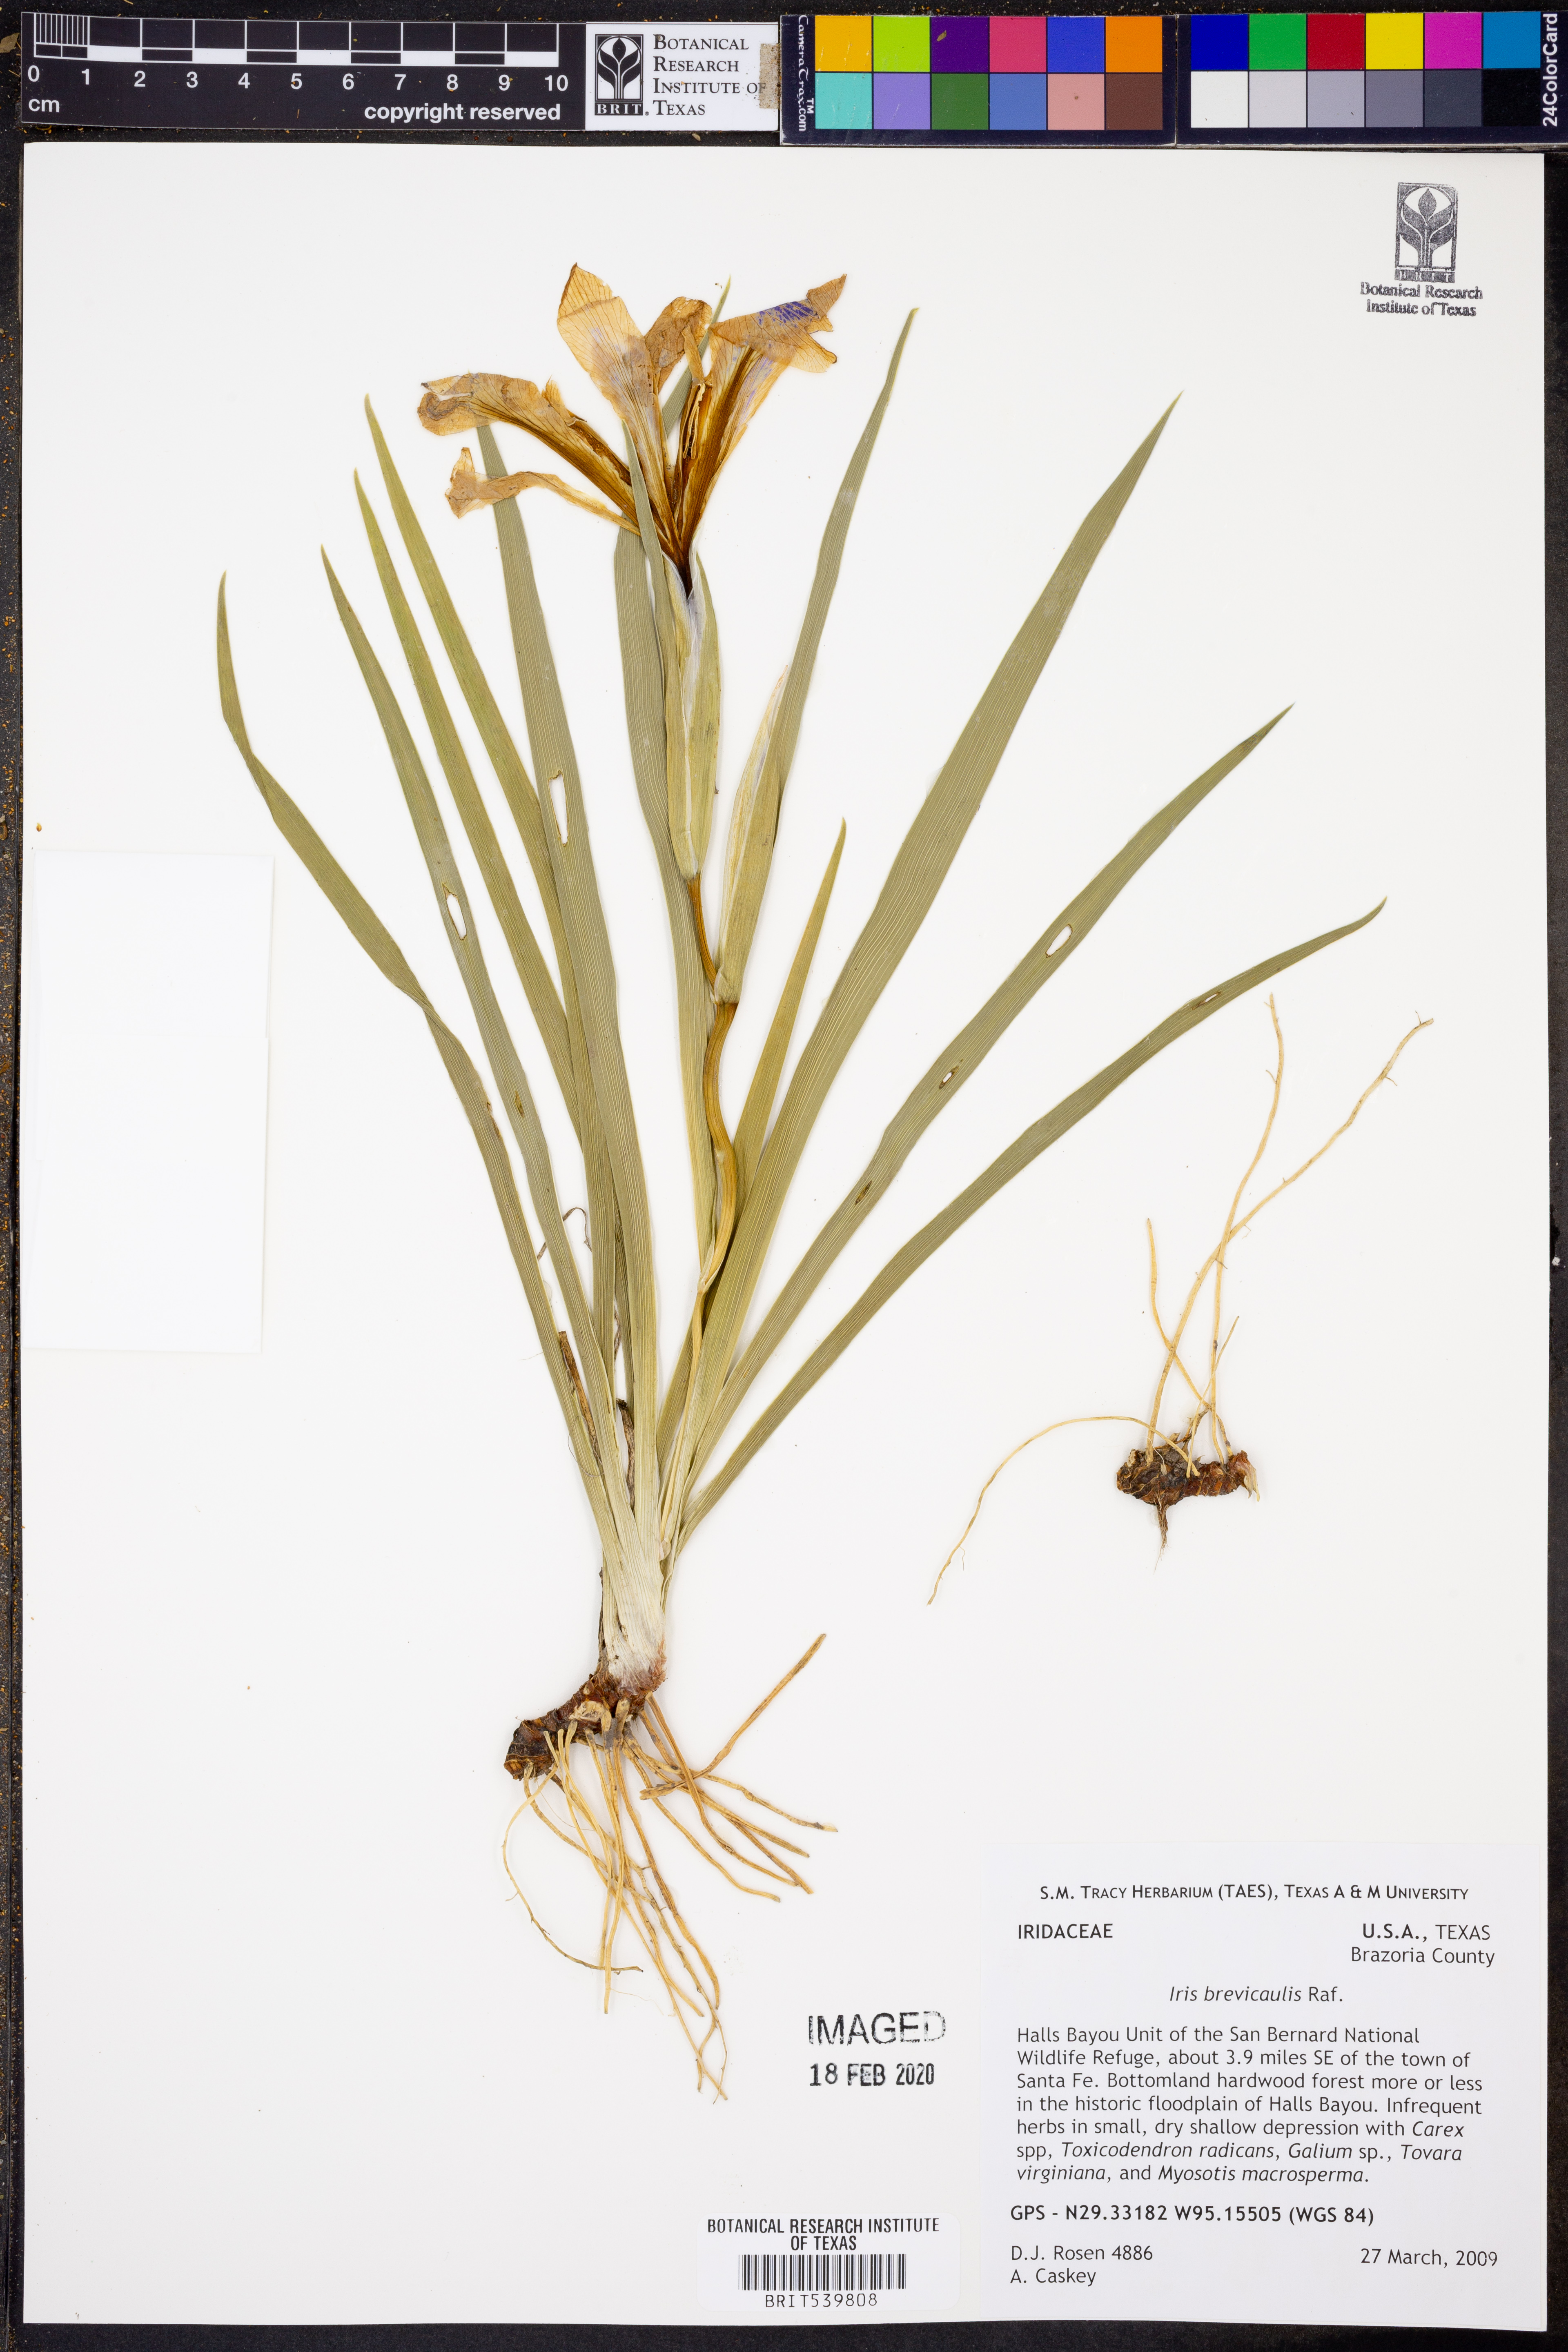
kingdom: Plantae
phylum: Tracheophyta
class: Liliopsida
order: Asparagales
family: Iridaceae
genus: Iris
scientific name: Iris brevicaulis
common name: Zigzag iris
